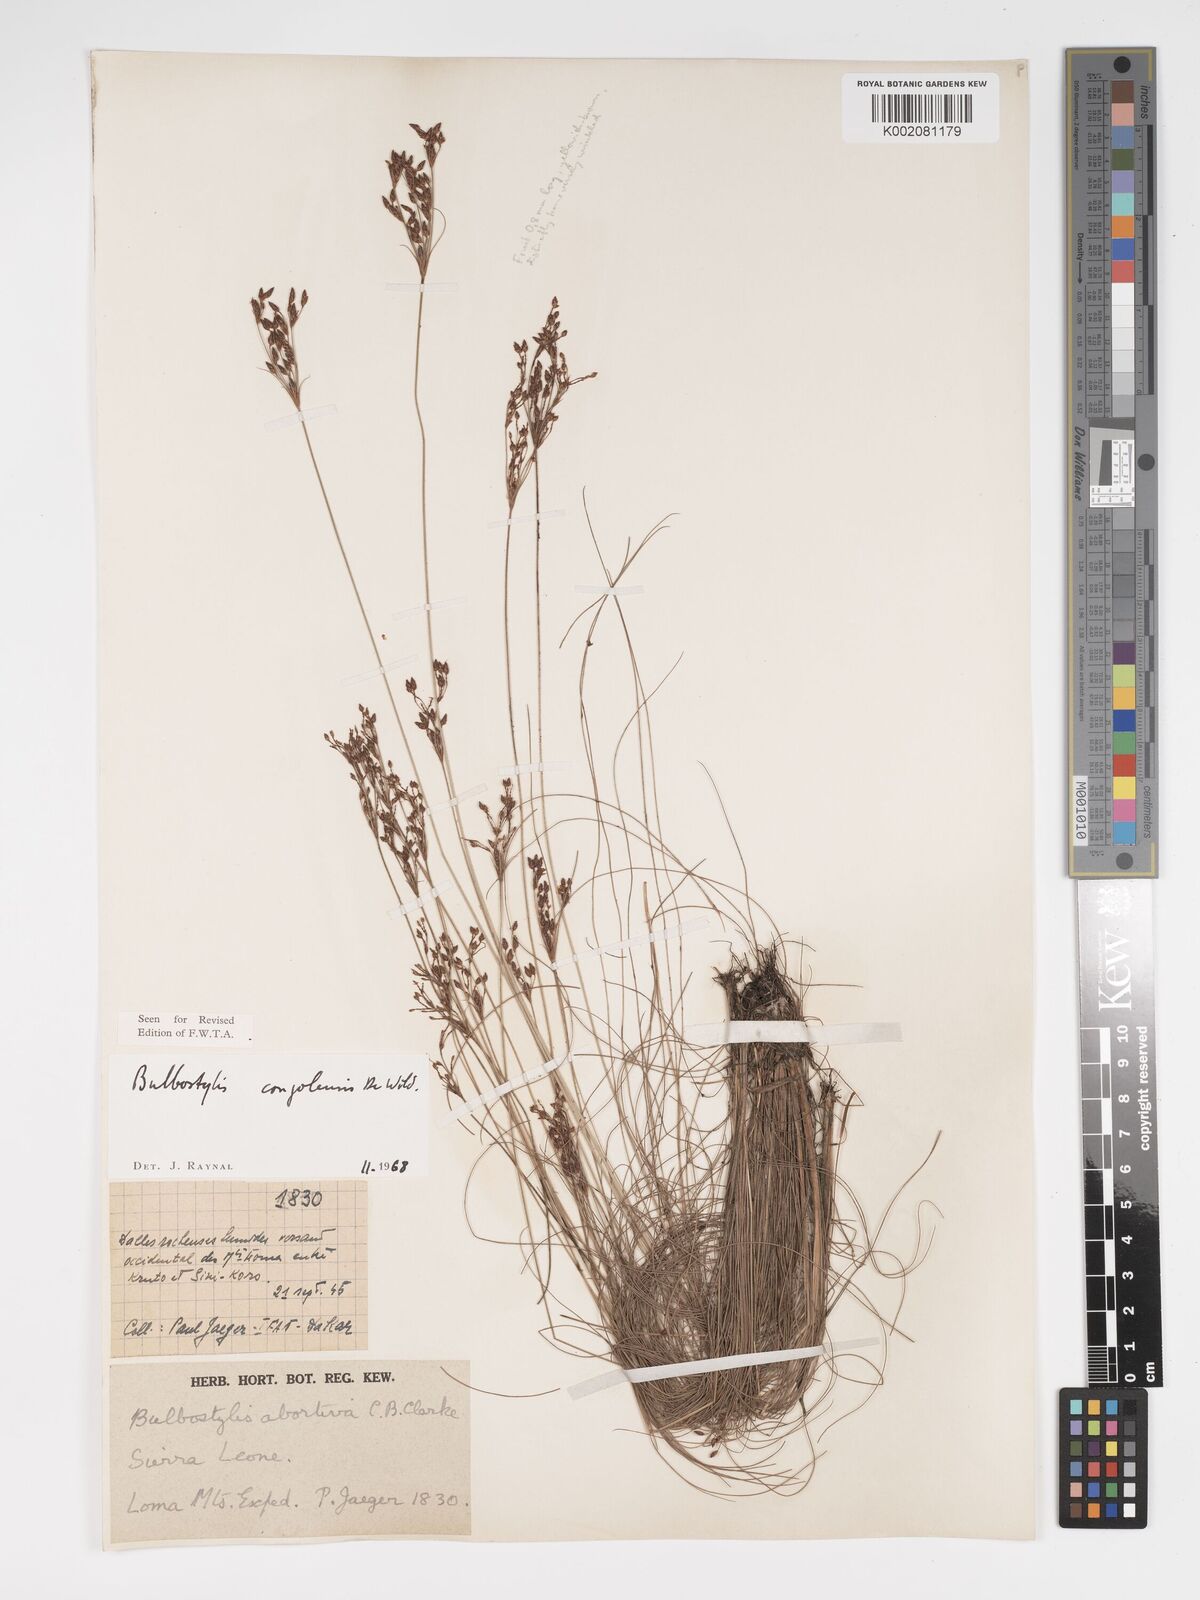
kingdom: Plantae
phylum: Tracheophyta
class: Liliopsida
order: Poales
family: Cyperaceae
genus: Bulbostylis
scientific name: Bulbostylis congolensis
